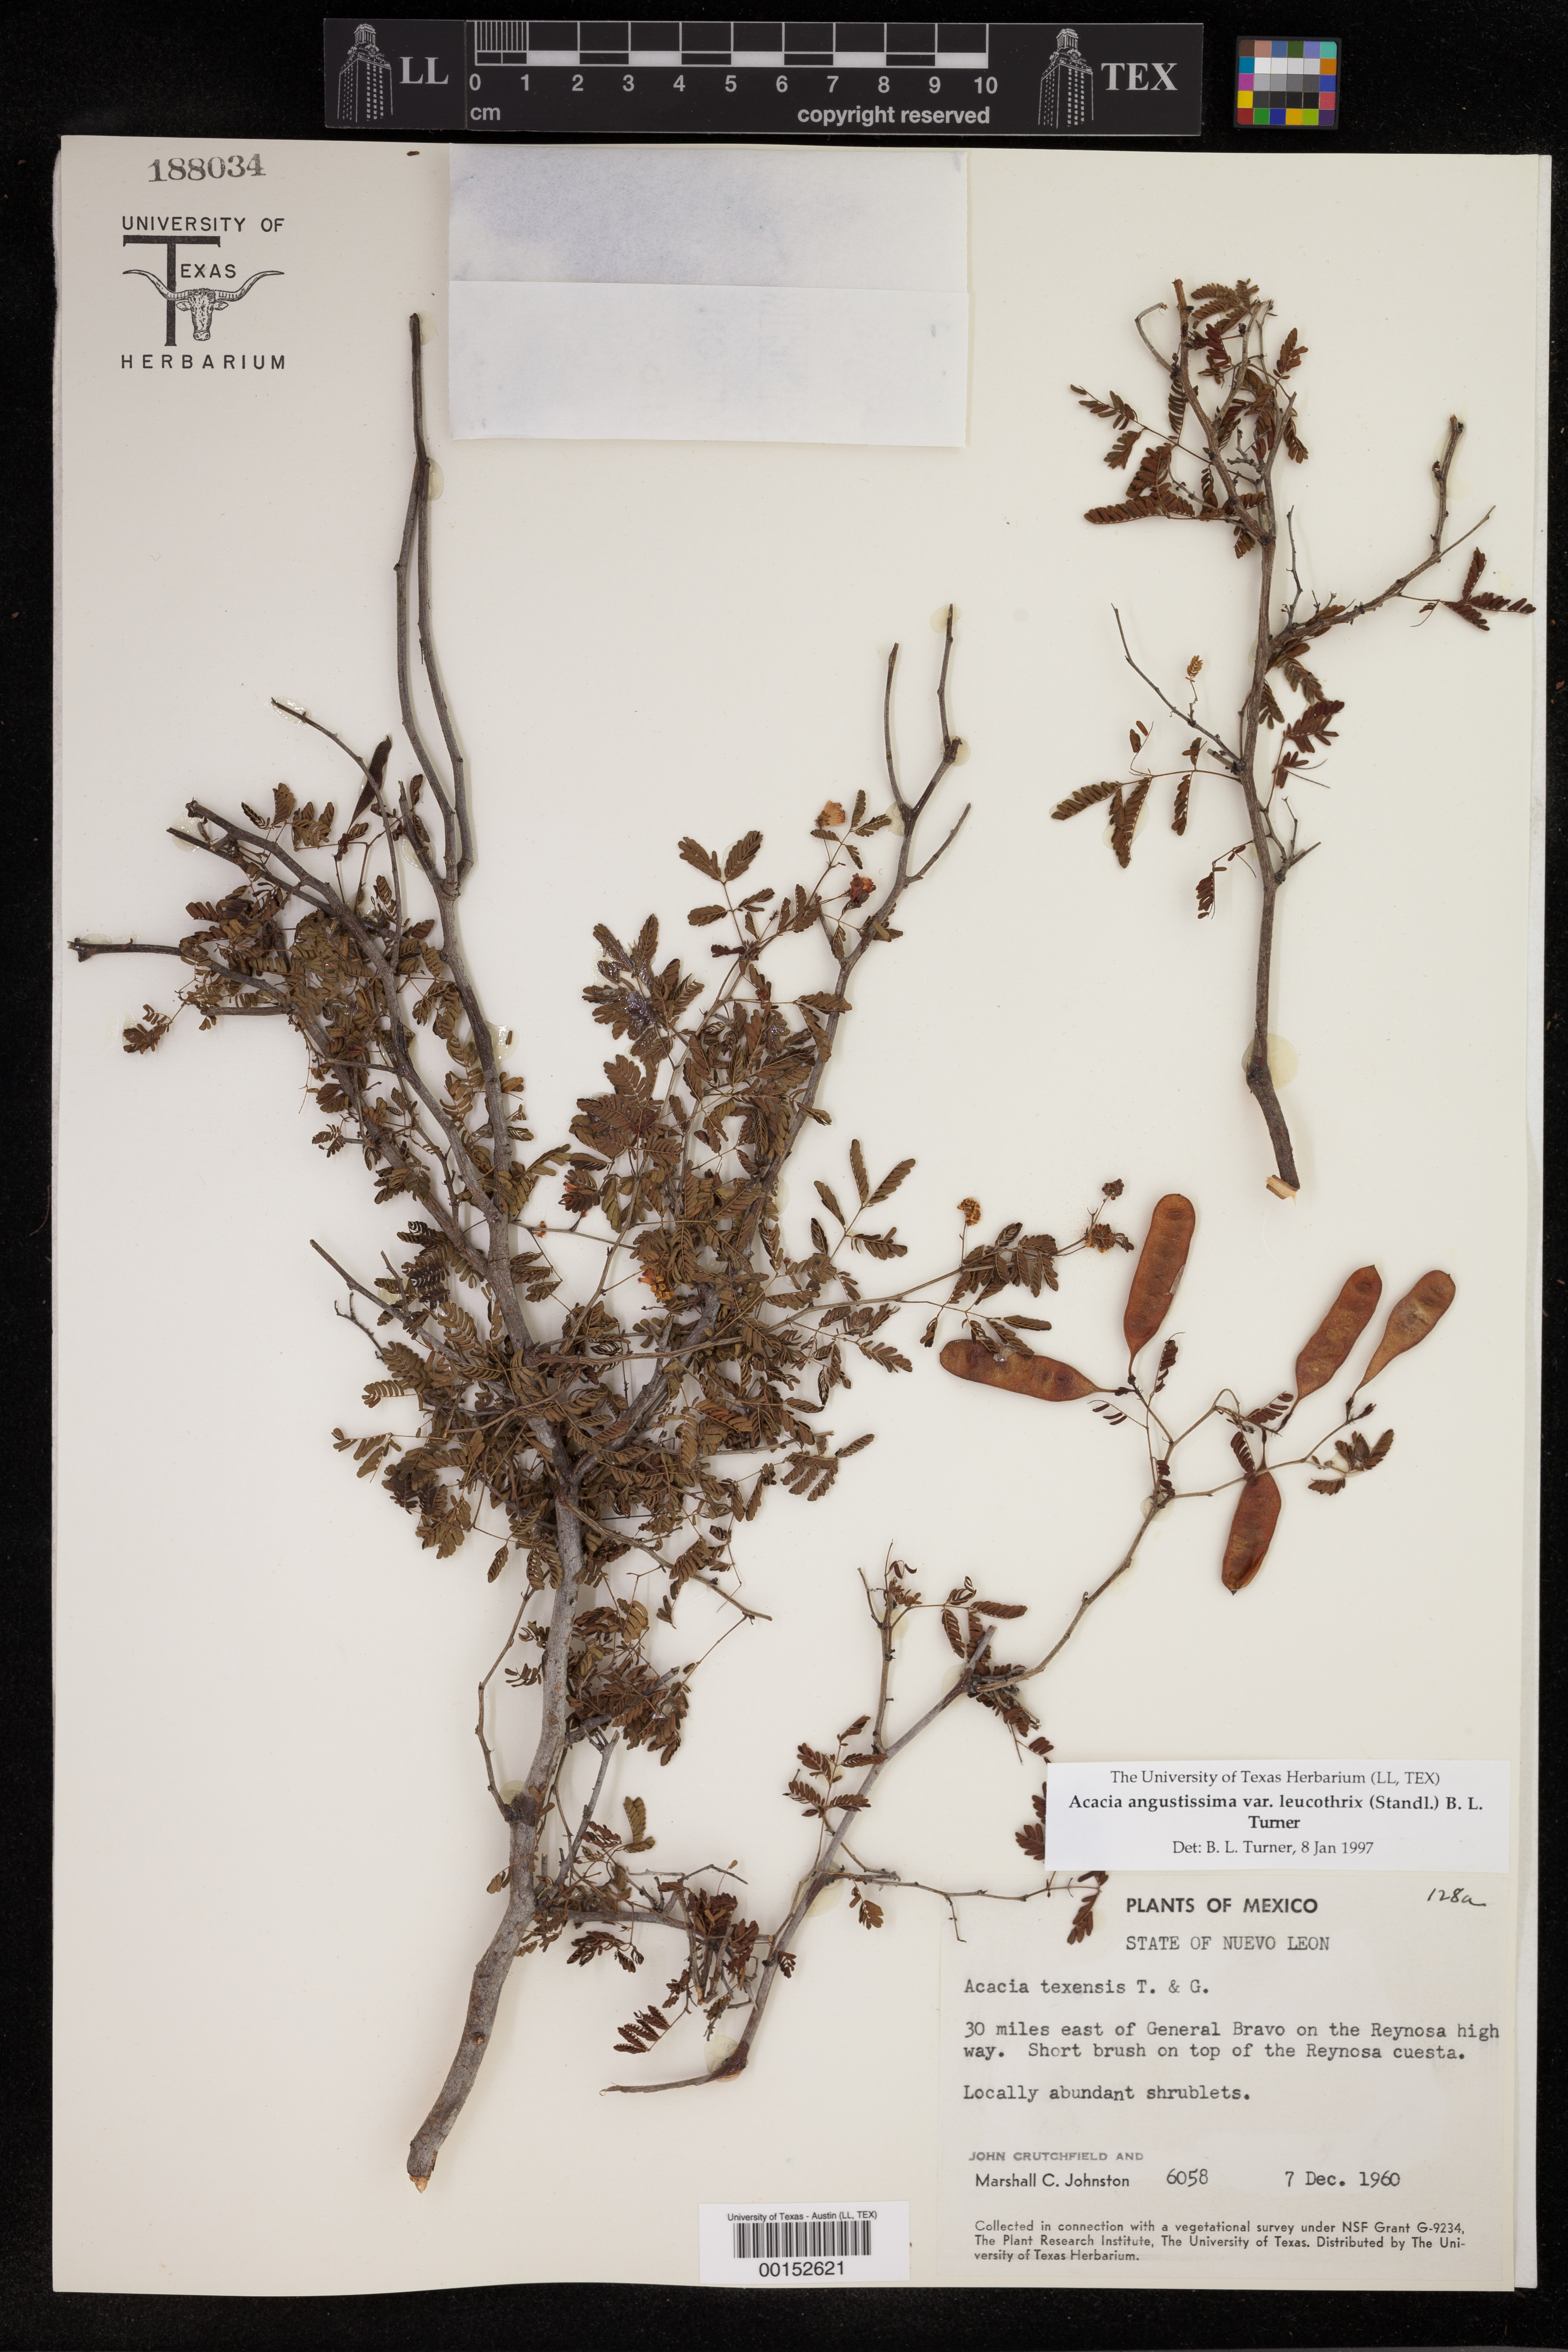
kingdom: Plantae
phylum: Tracheophyta
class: Magnoliopsida
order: Fabales
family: Fabaceae
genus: Acaciella
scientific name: Acaciella hartwegii
